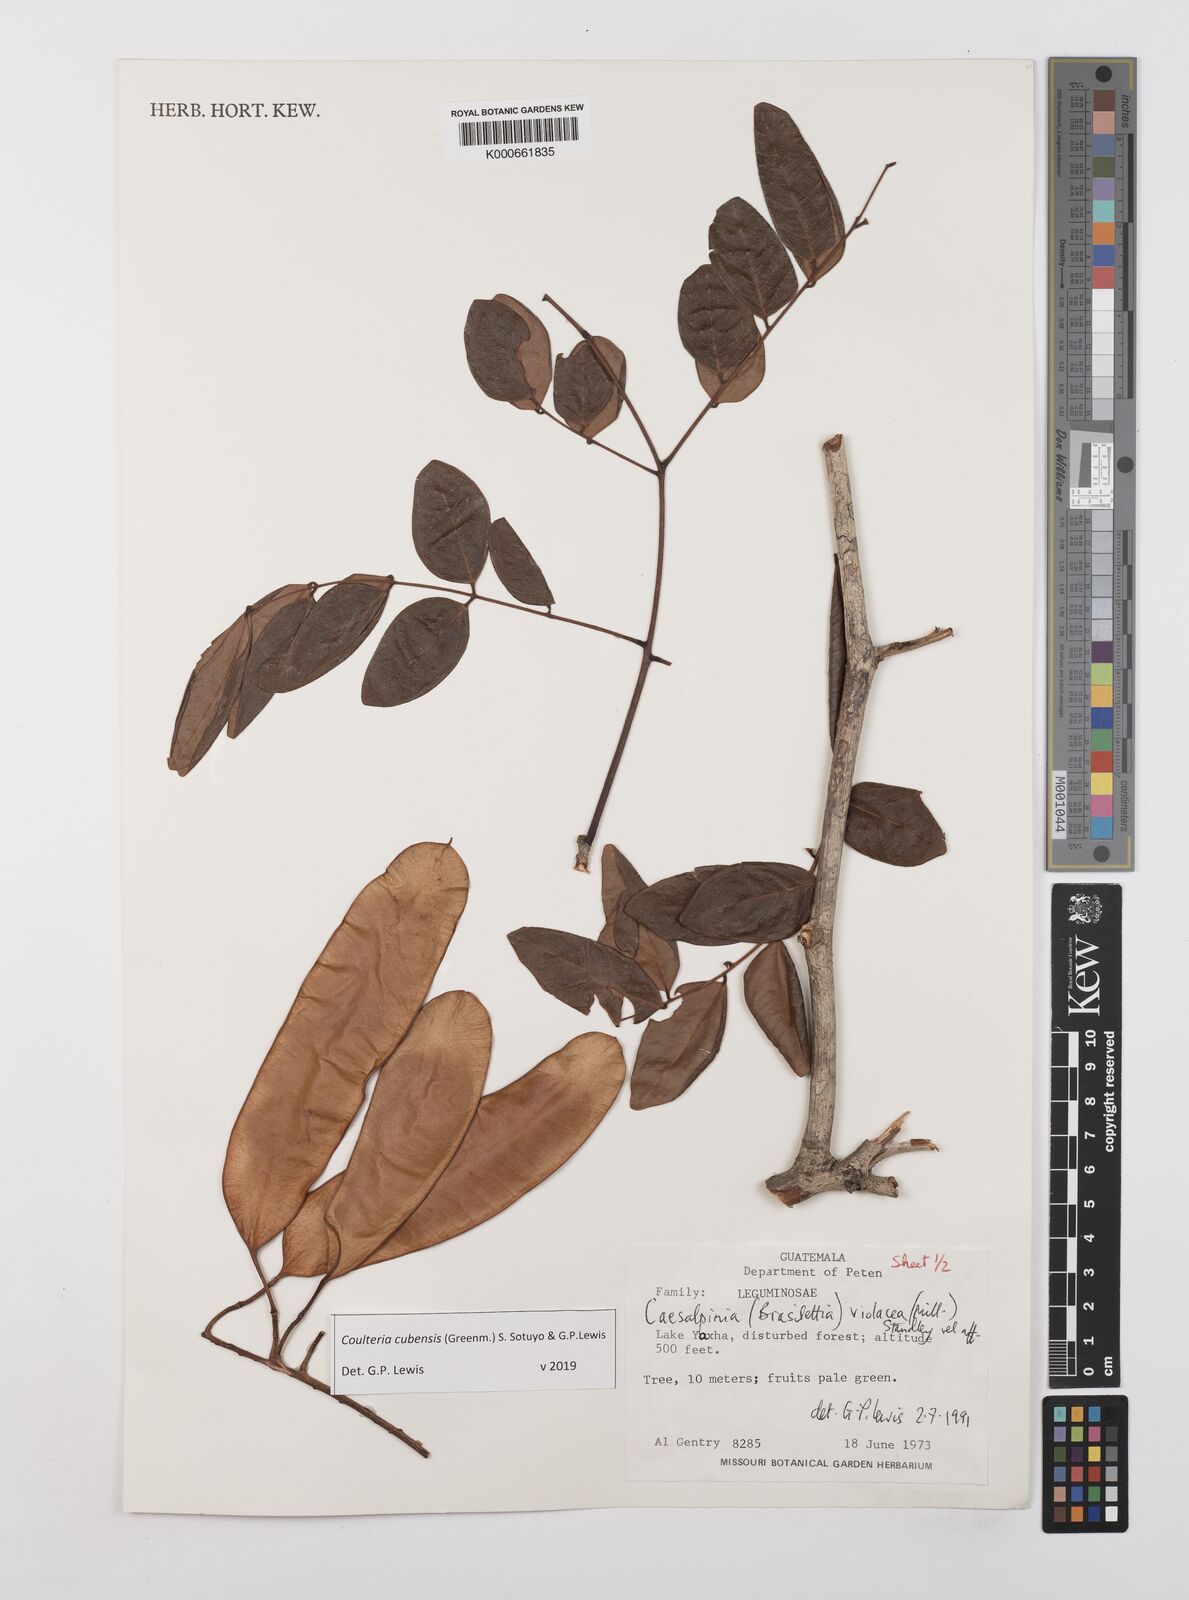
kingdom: Plantae
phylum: Tracheophyta
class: Magnoliopsida
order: Fabales
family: Fabaceae
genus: Coulteria
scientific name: Coulteria cubensis
